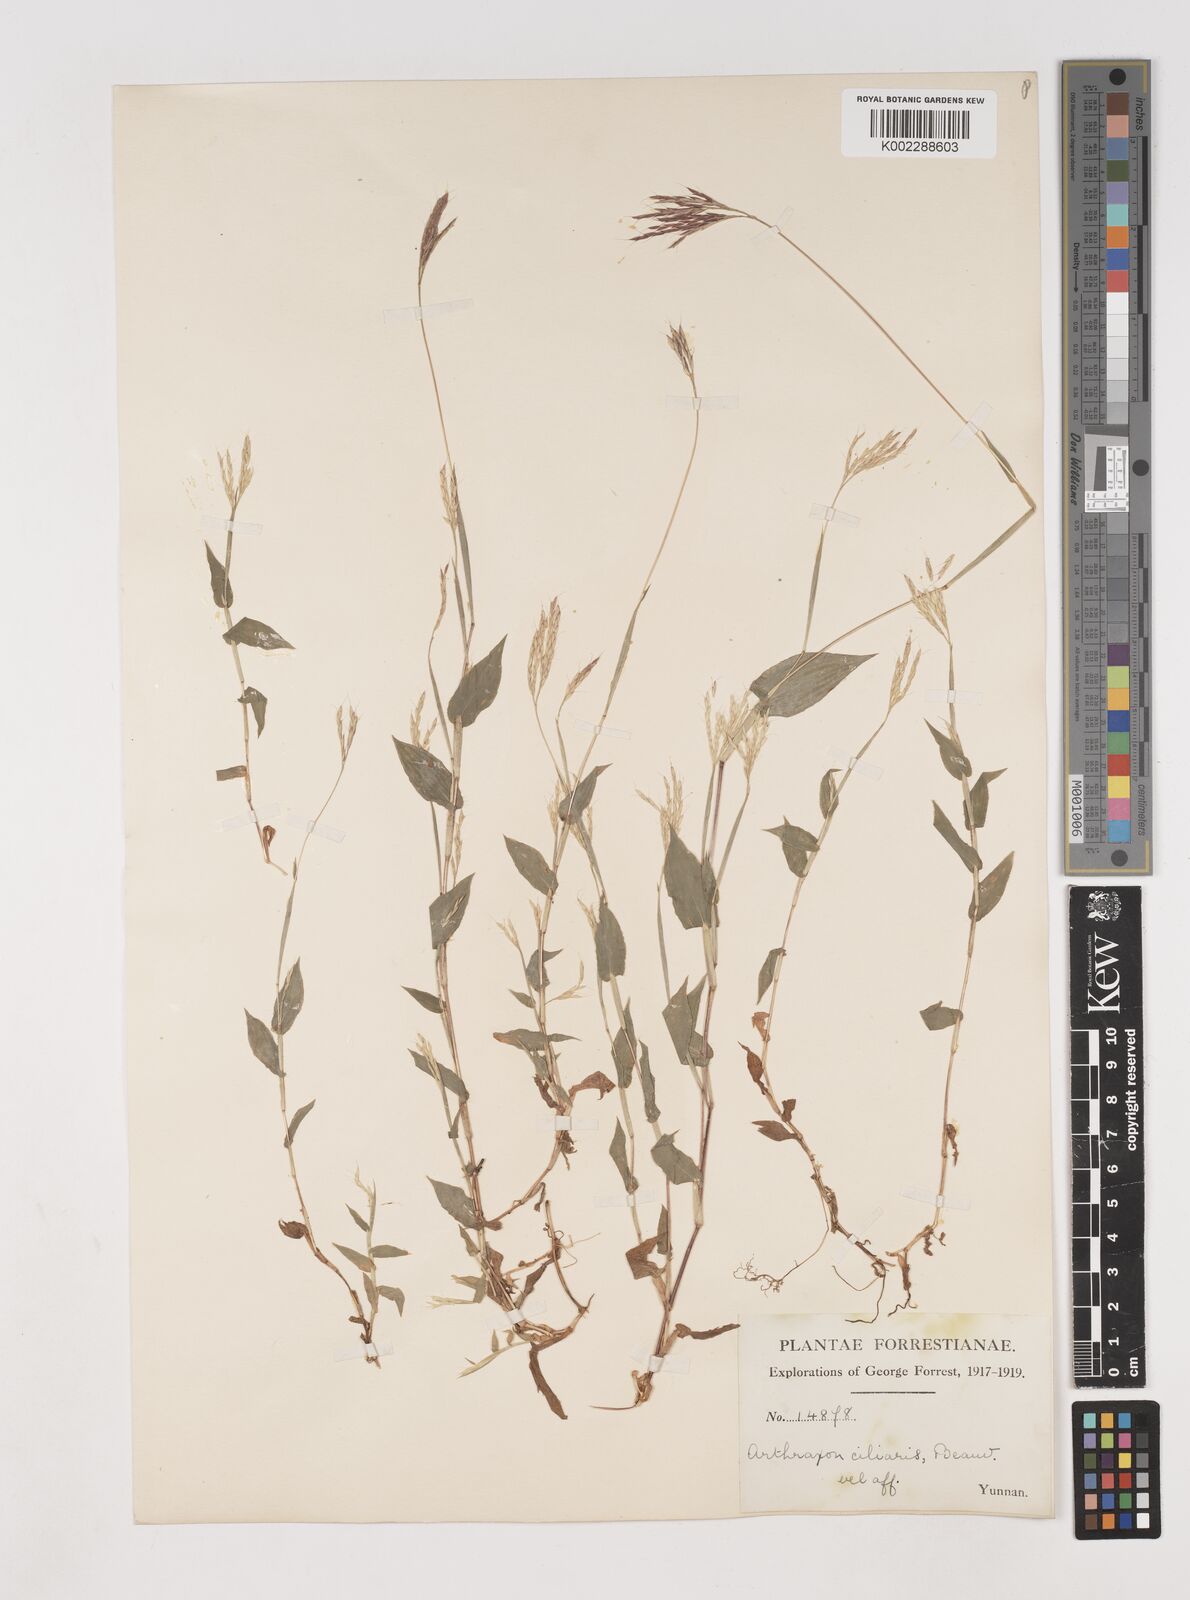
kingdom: Plantae
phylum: Tracheophyta
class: Liliopsida
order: Poales
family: Poaceae
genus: Arthraxon
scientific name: Arthraxon hispidus
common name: Small carpgrass
